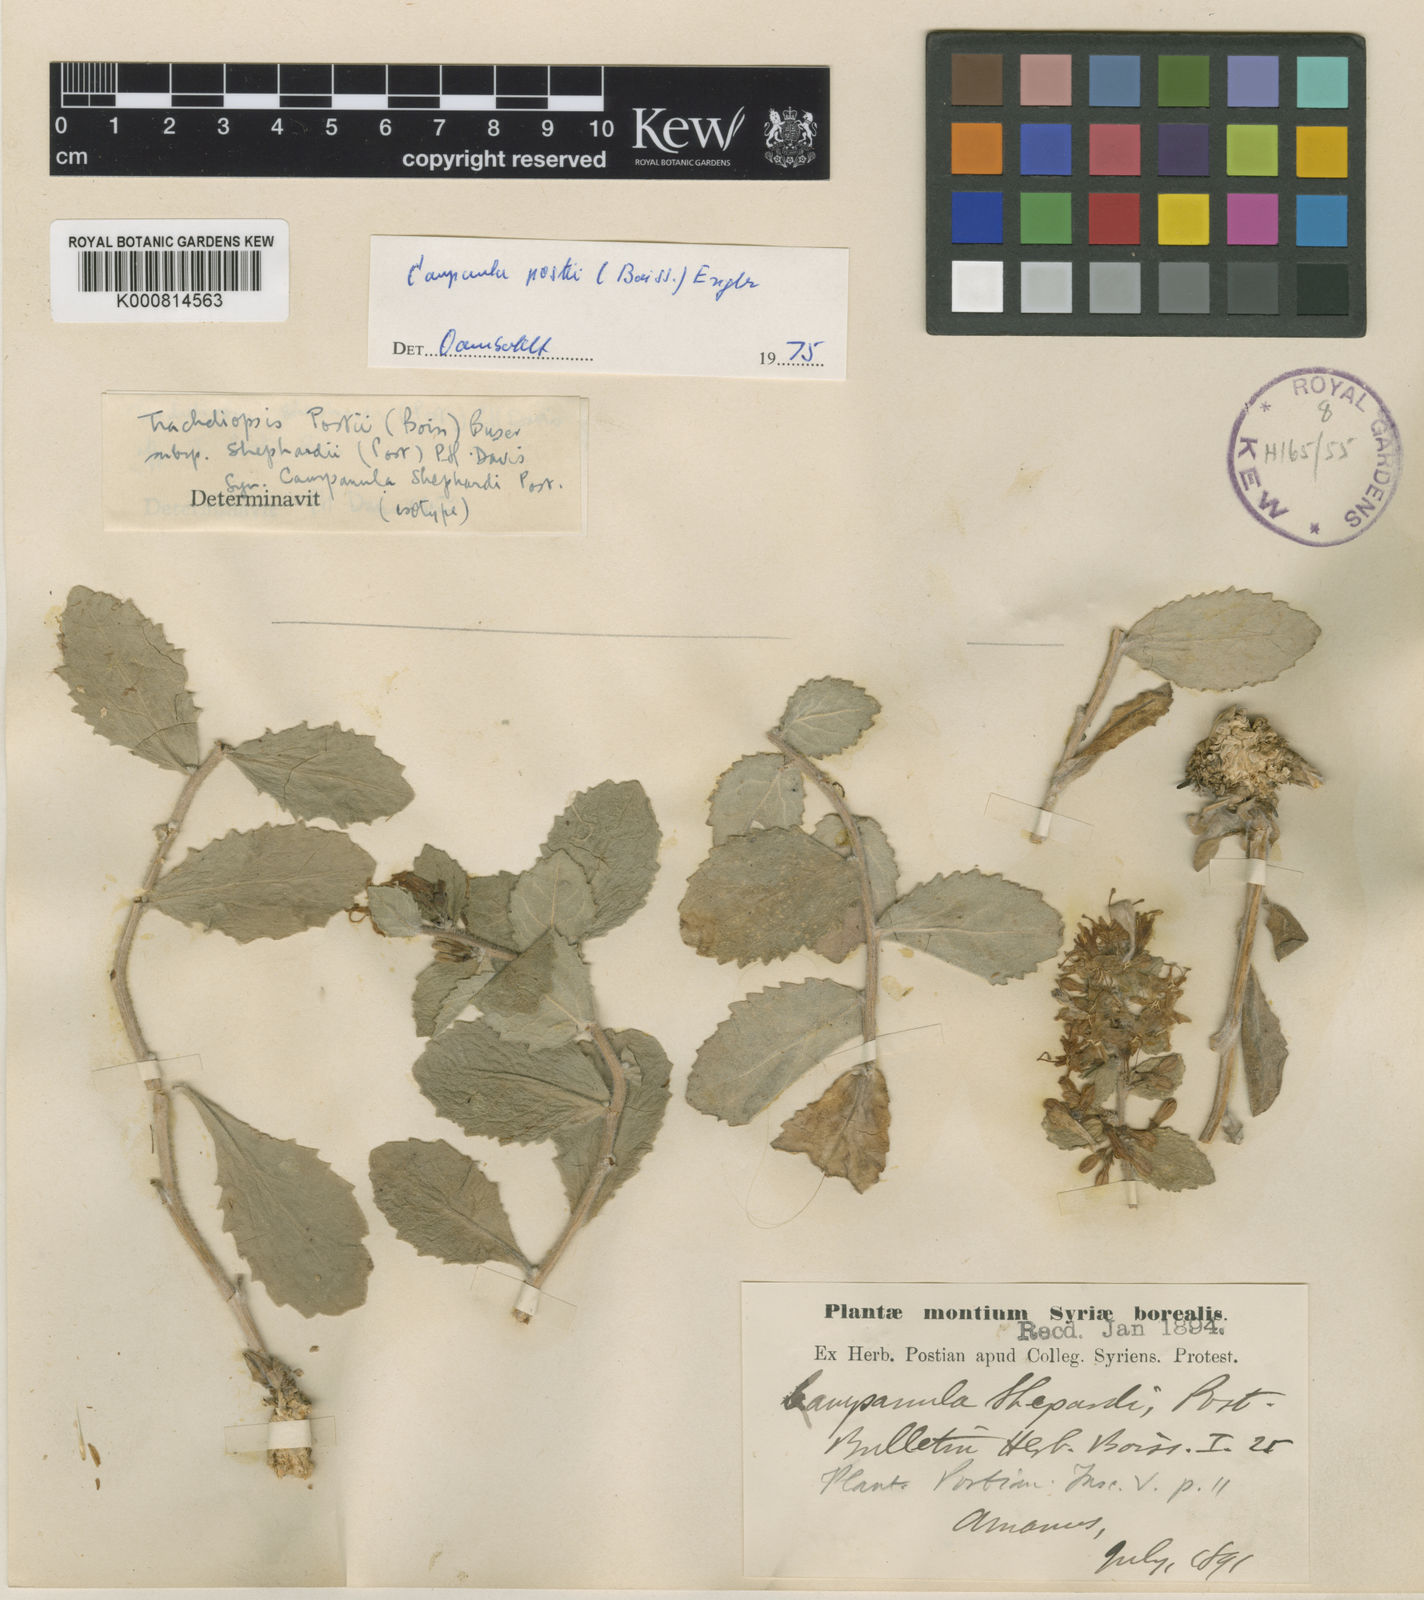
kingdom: Plantae
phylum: Tracheophyta
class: Magnoliopsida
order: Asterales
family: Campanulaceae
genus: Campanula
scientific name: Campanula postii
